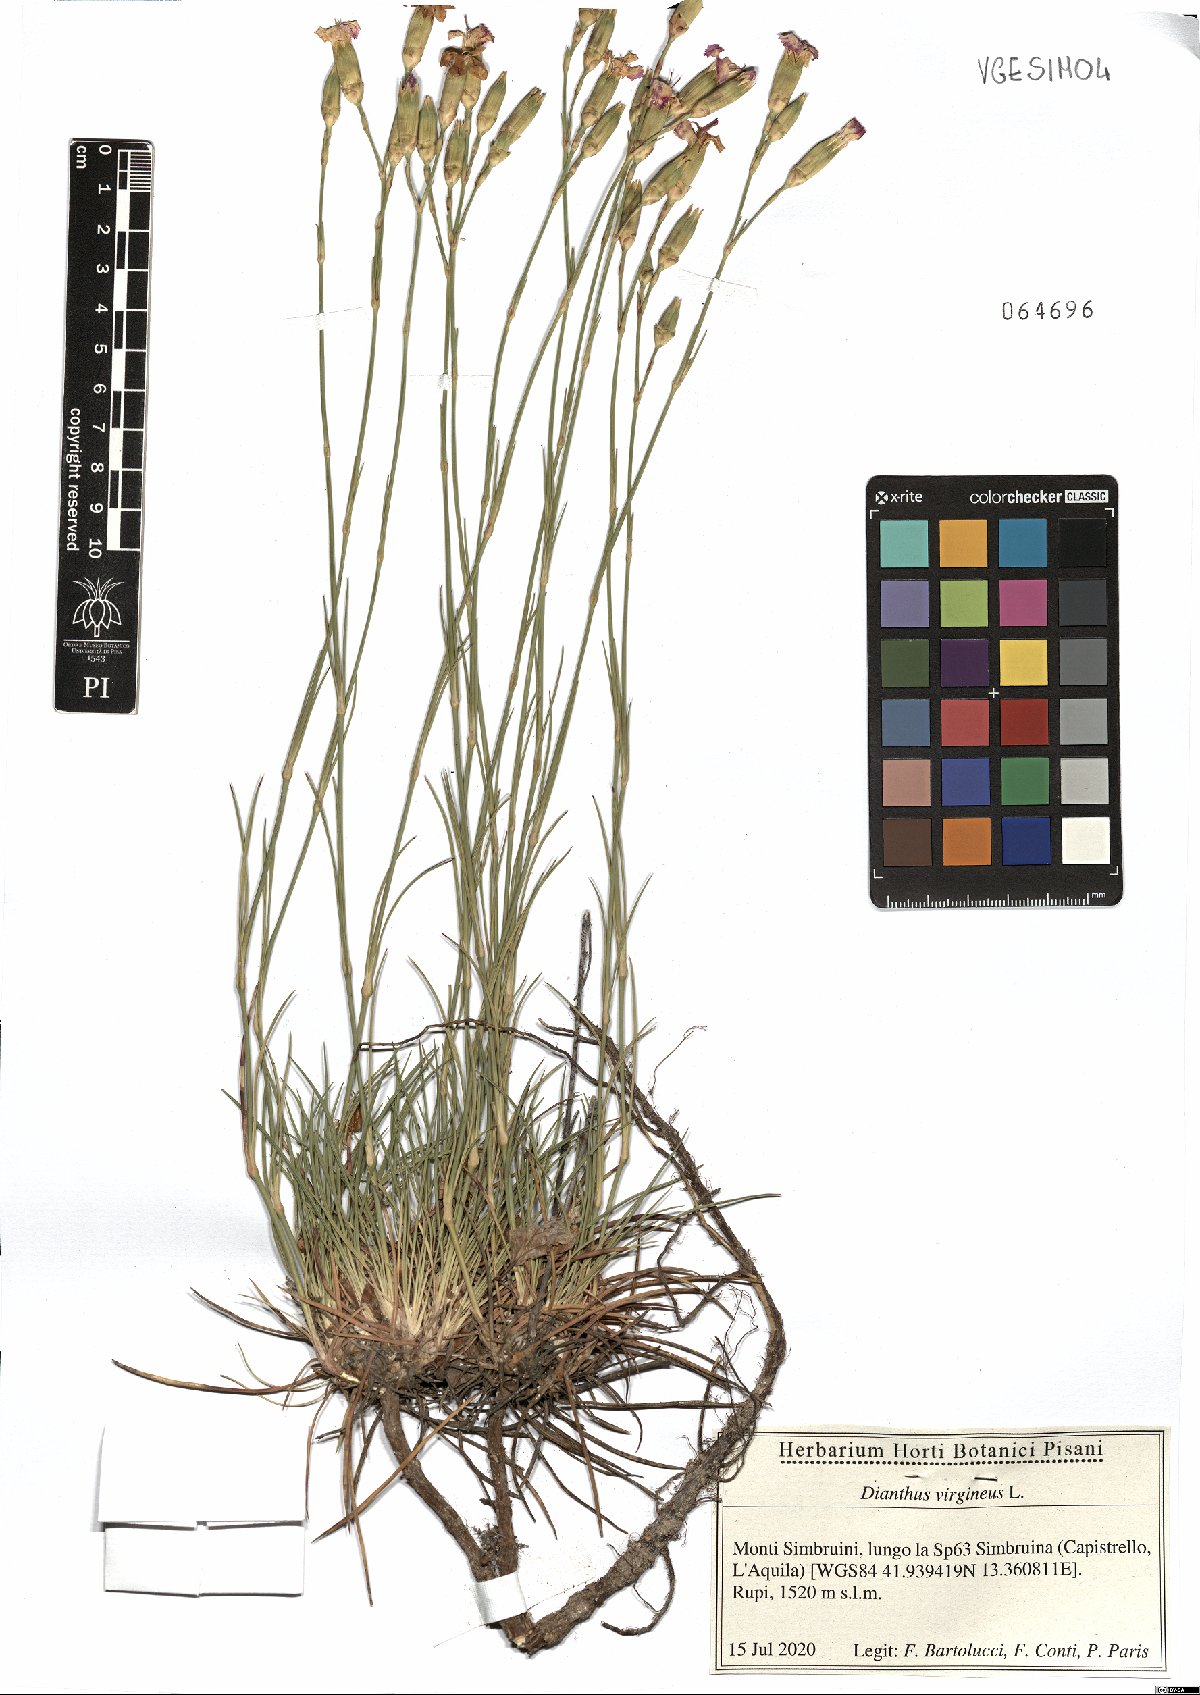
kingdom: Plantae
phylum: Tracheophyta
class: Magnoliopsida
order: Caryophyllales
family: Caryophyllaceae
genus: Dianthus
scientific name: Dianthus virgineus
